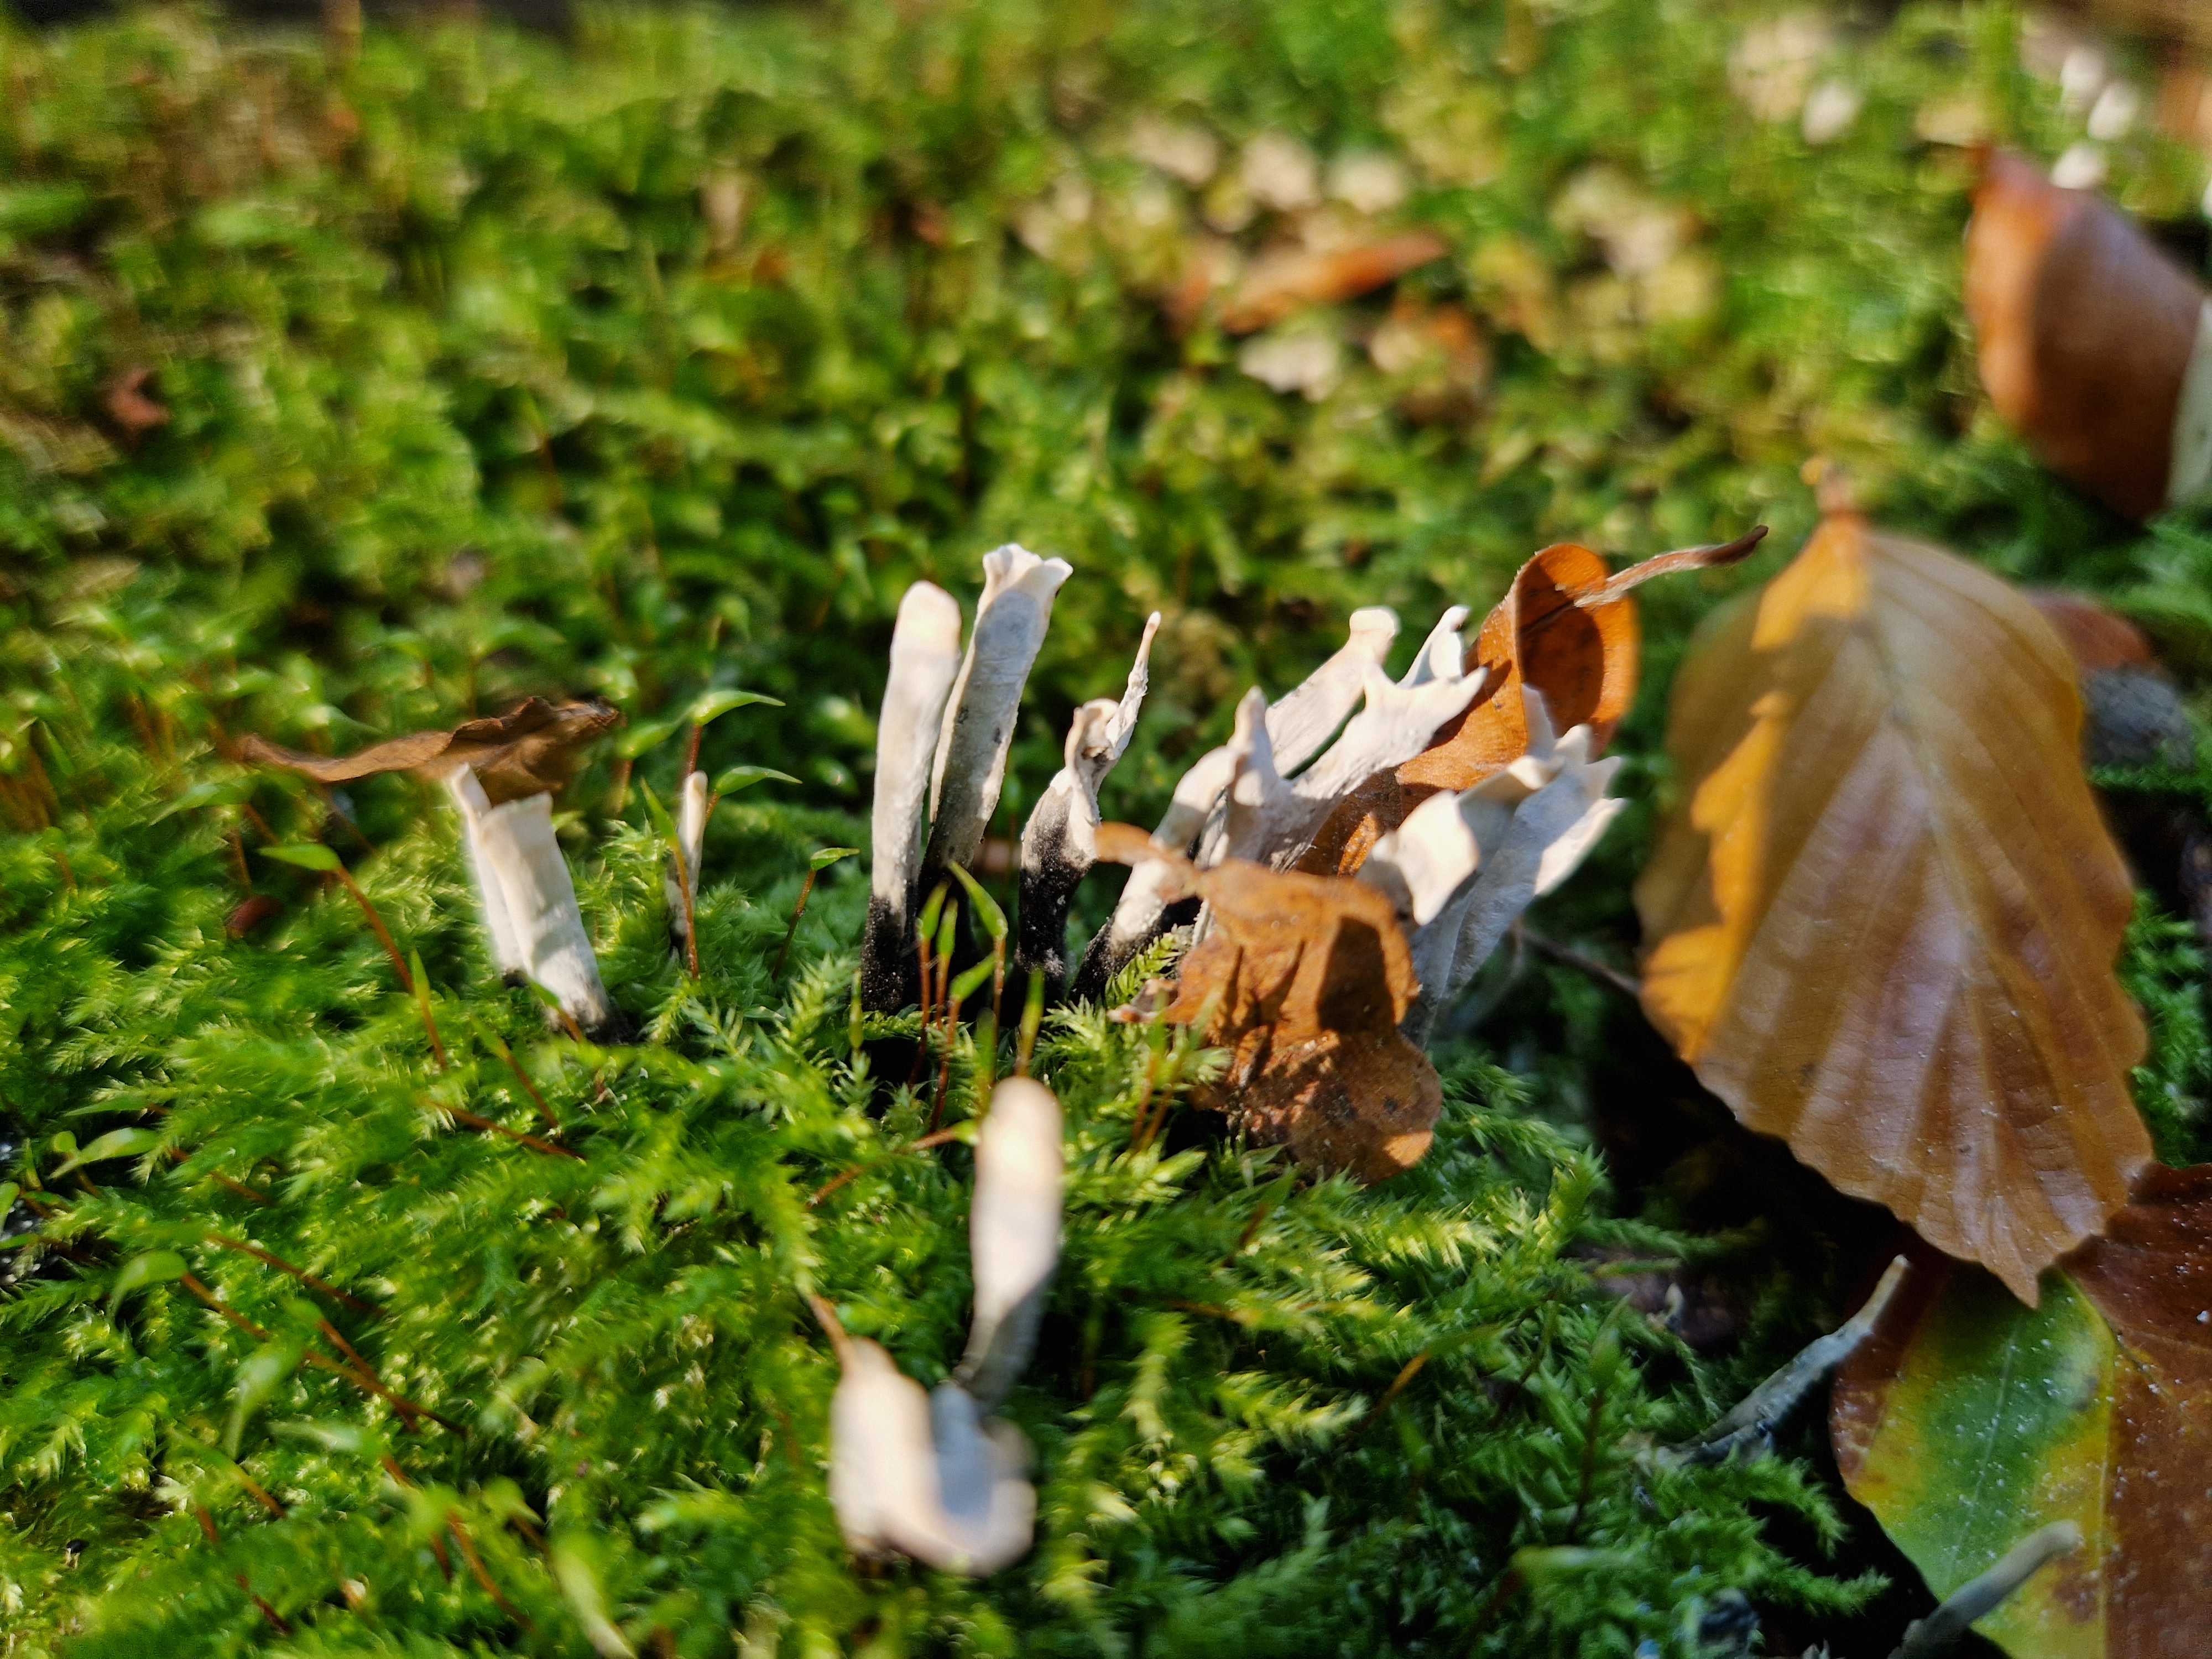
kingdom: Fungi
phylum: Ascomycota
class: Sordariomycetes
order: Xylariales
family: Xylariaceae
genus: Xylaria
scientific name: Xylaria hypoxylon
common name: grenet stødsvamp
